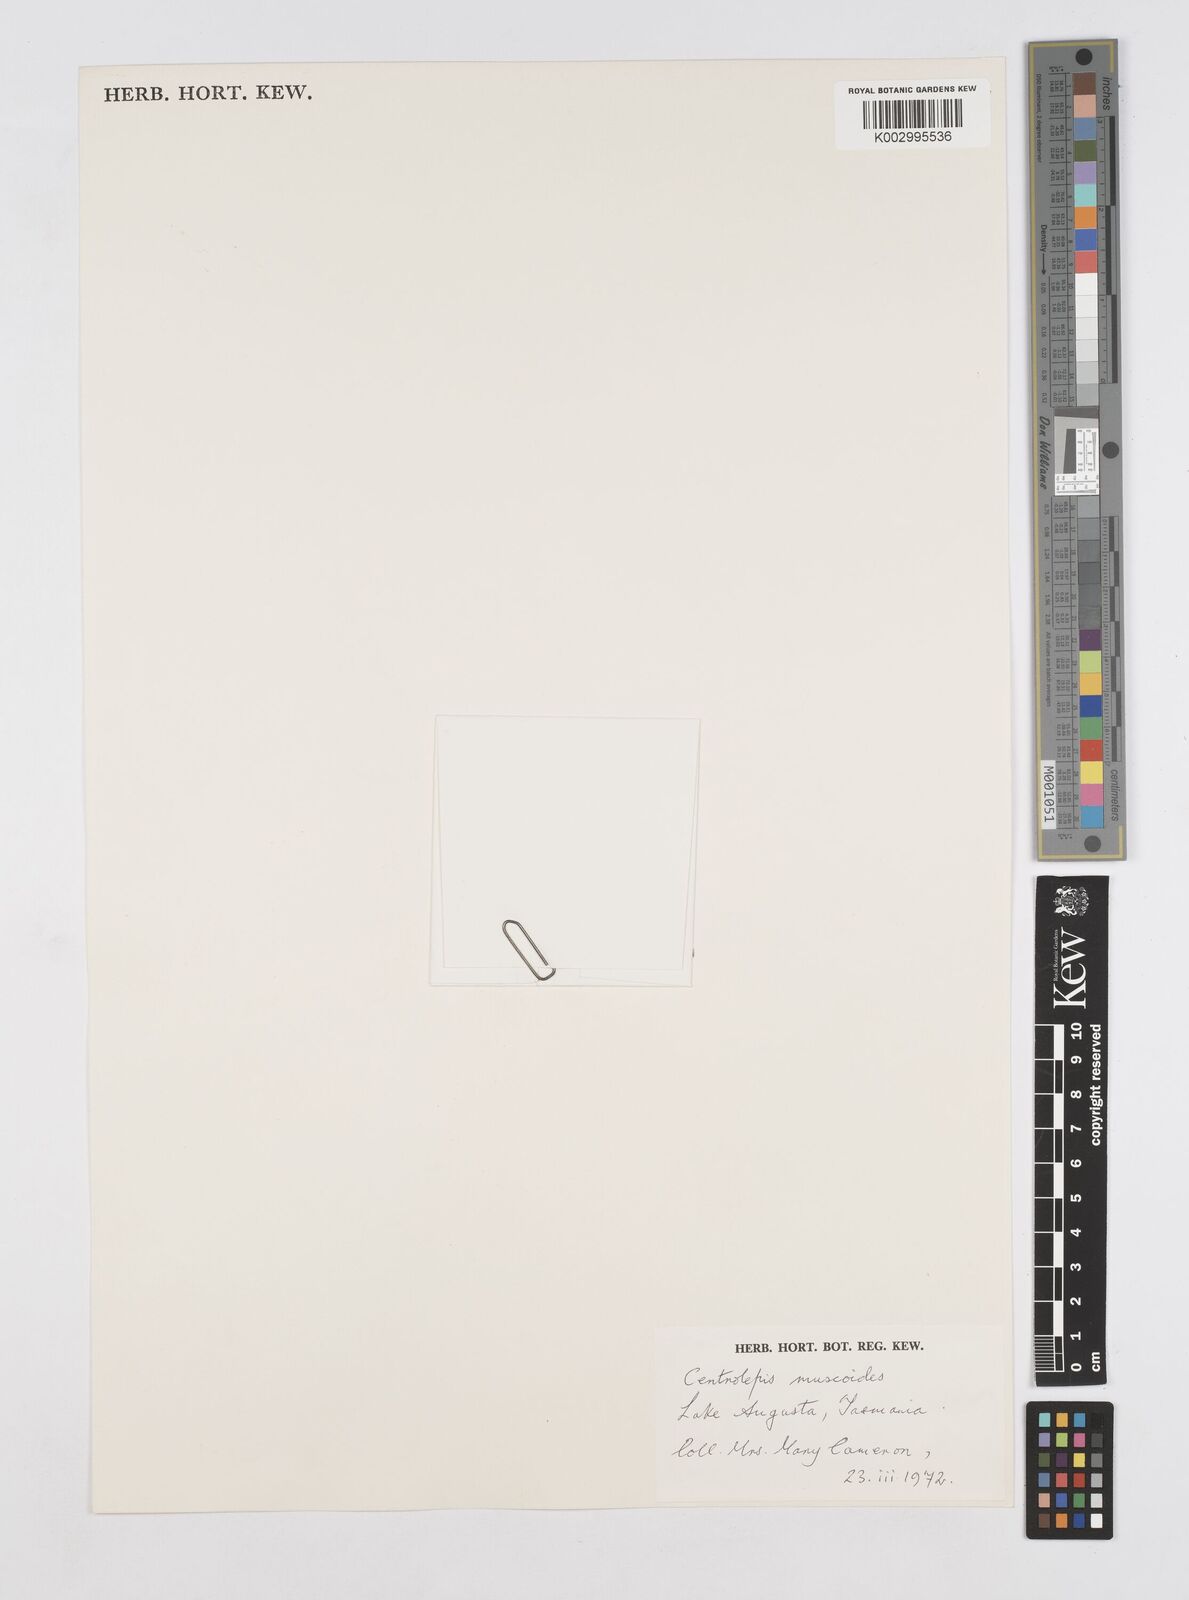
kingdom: Plantae
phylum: Tracheophyta
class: Liliopsida
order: Poales
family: Restionaceae
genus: Centrolepis
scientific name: Centrolepis muscoides
